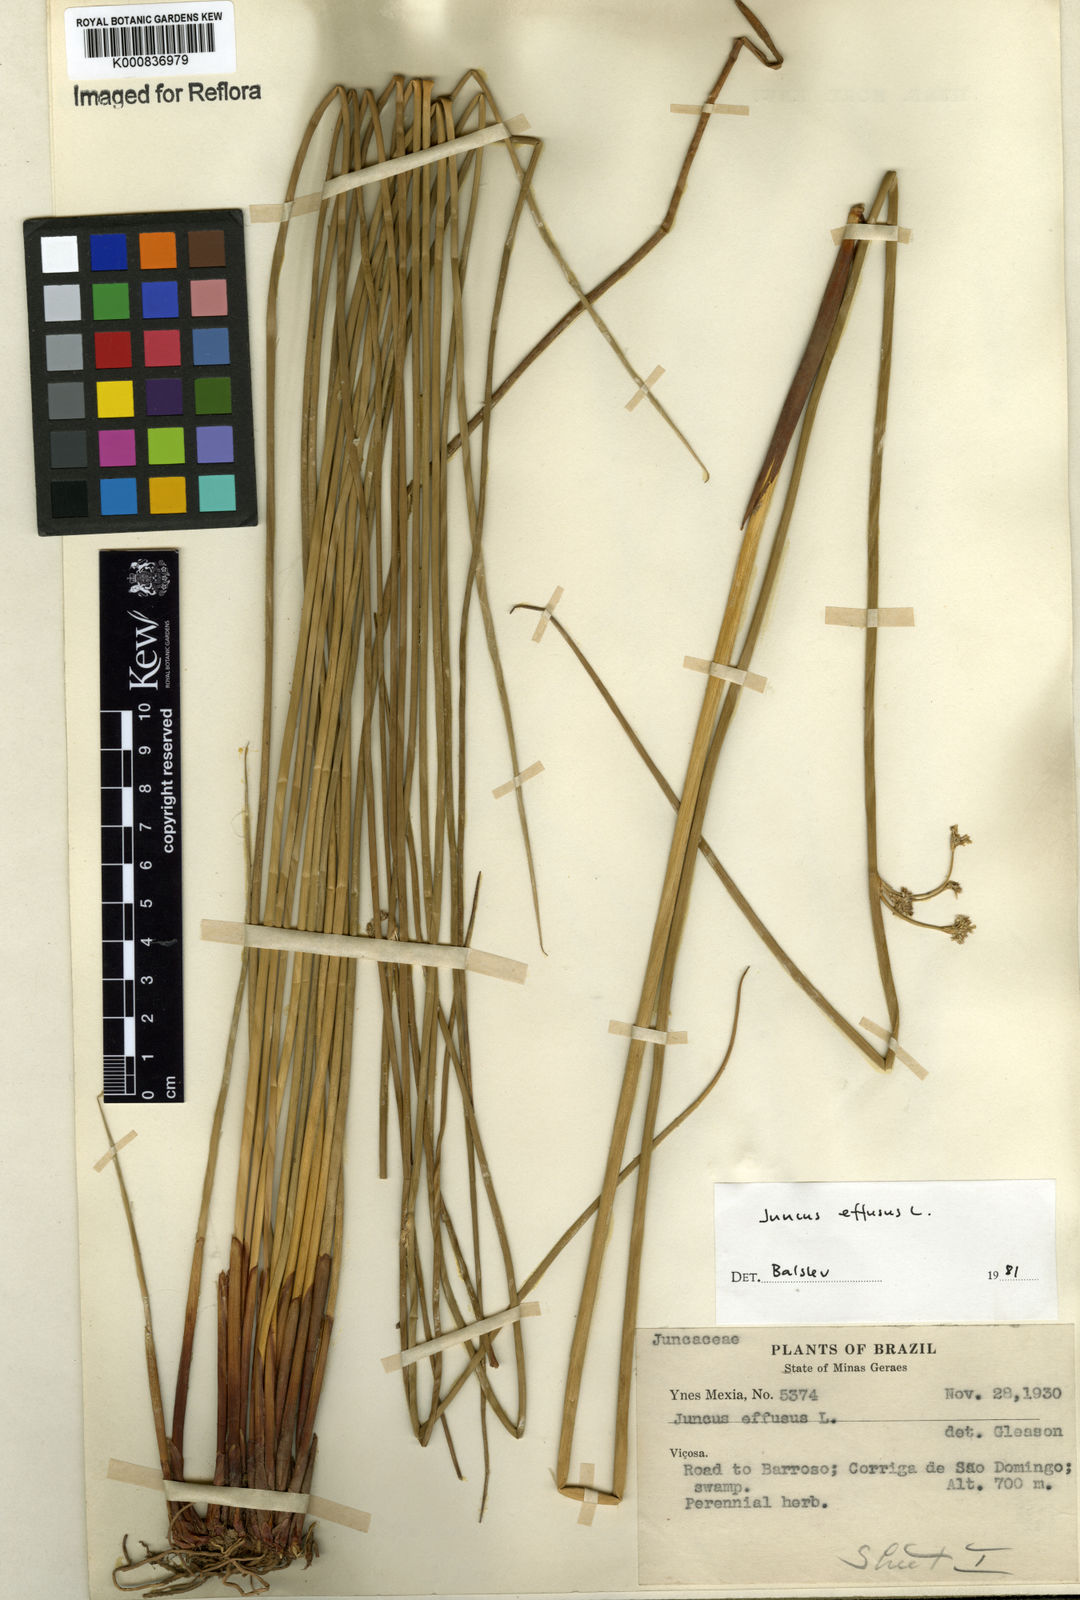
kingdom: Plantae
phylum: Tracheophyta
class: Liliopsida
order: Poales
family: Juncaceae
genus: Juncus
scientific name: Juncus effusus
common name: Soft rush
